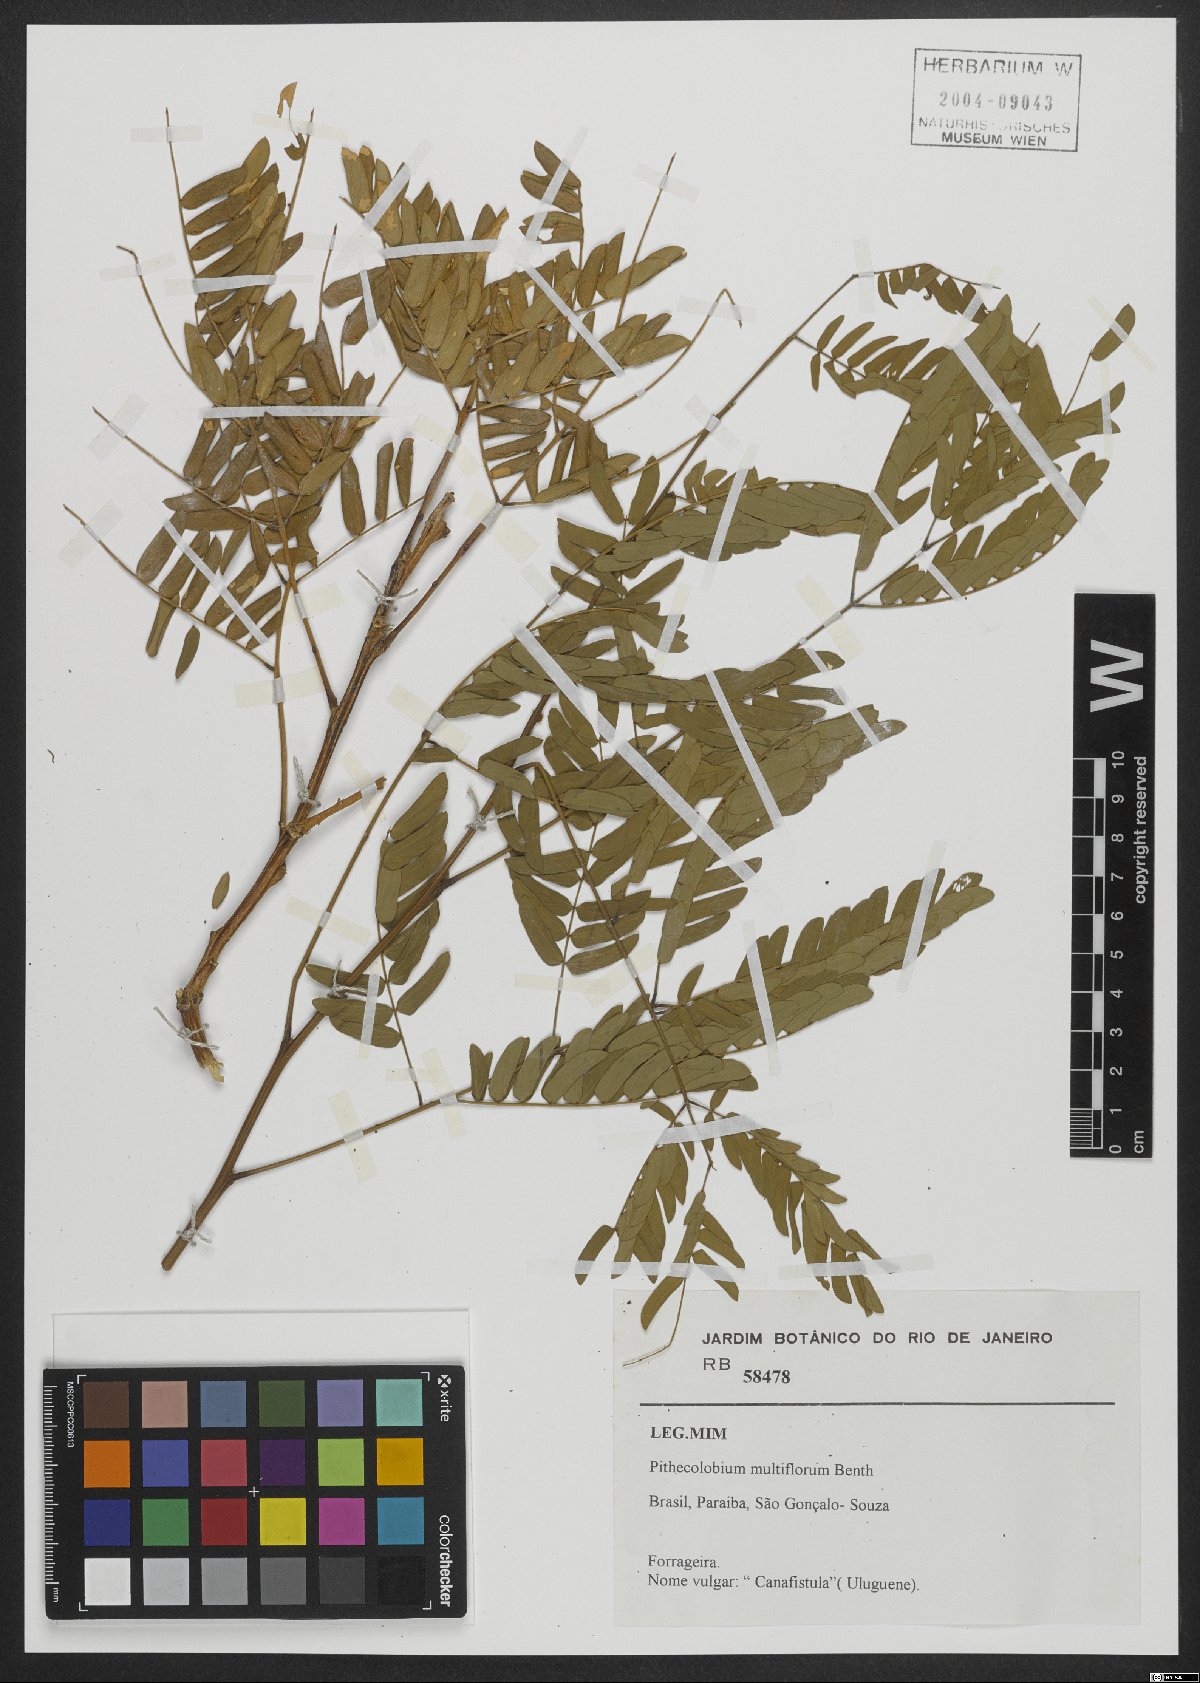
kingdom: Plantae
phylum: Tracheophyta
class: Magnoliopsida
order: Fabales
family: Fabaceae
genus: Albizia
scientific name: Albizia multiflora
